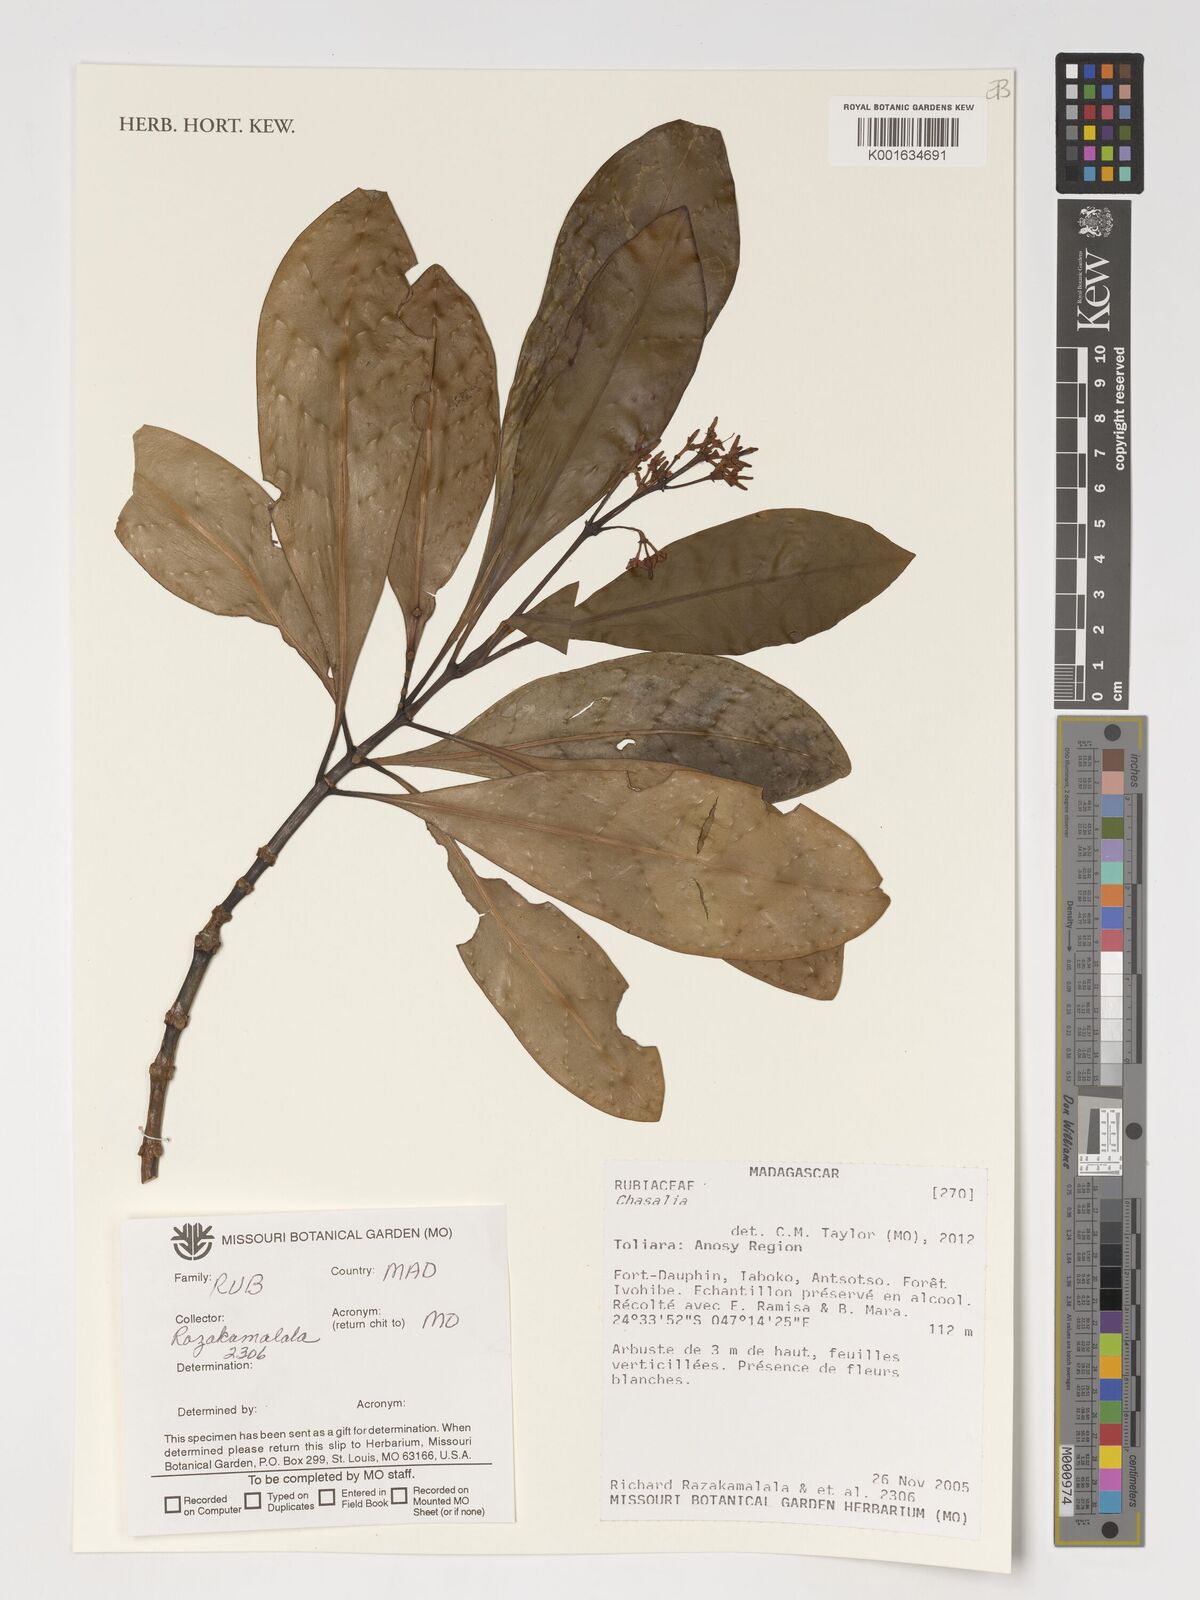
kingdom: Plantae
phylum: Tracheophyta
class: Magnoliopsida
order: Gentianales
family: Rubiaceae
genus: Chassalia
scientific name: Chassalia
